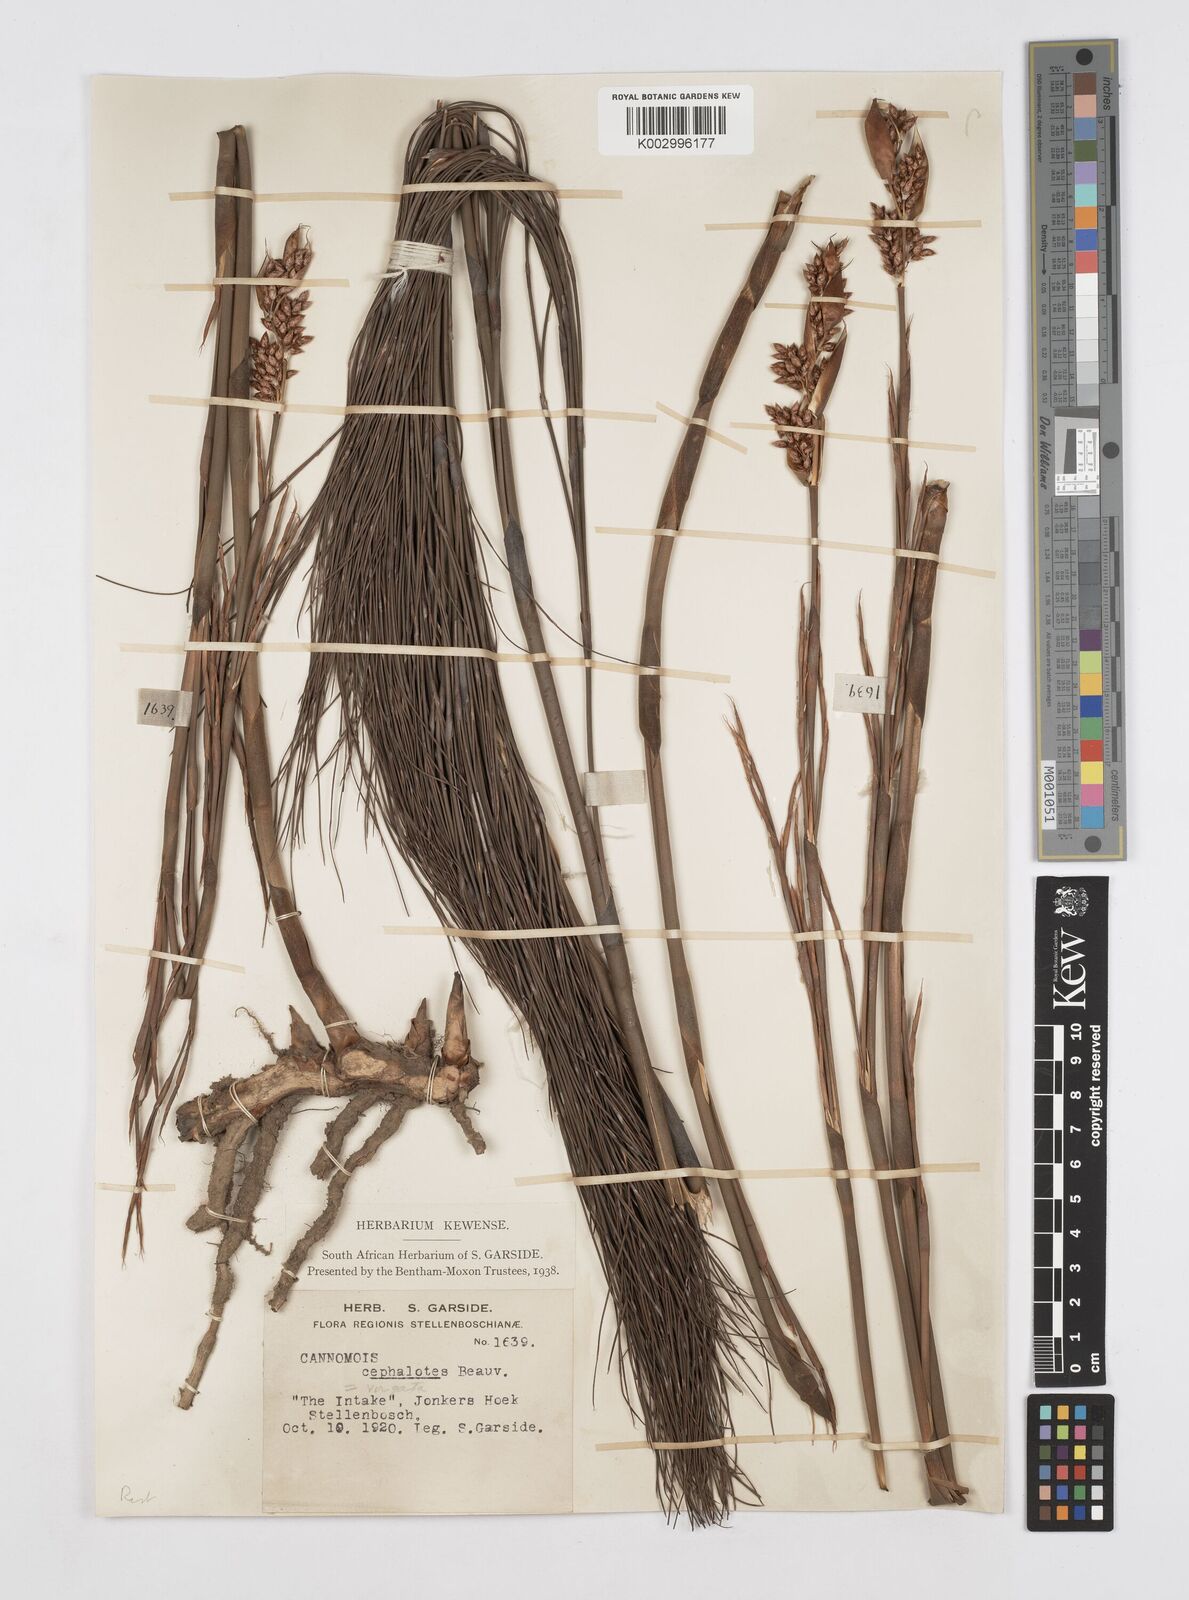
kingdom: Plantae
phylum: Tracheophyta
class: Liliopsida
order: Poales
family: Restionaceae
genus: Cannomois
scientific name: Cannomois virgata
